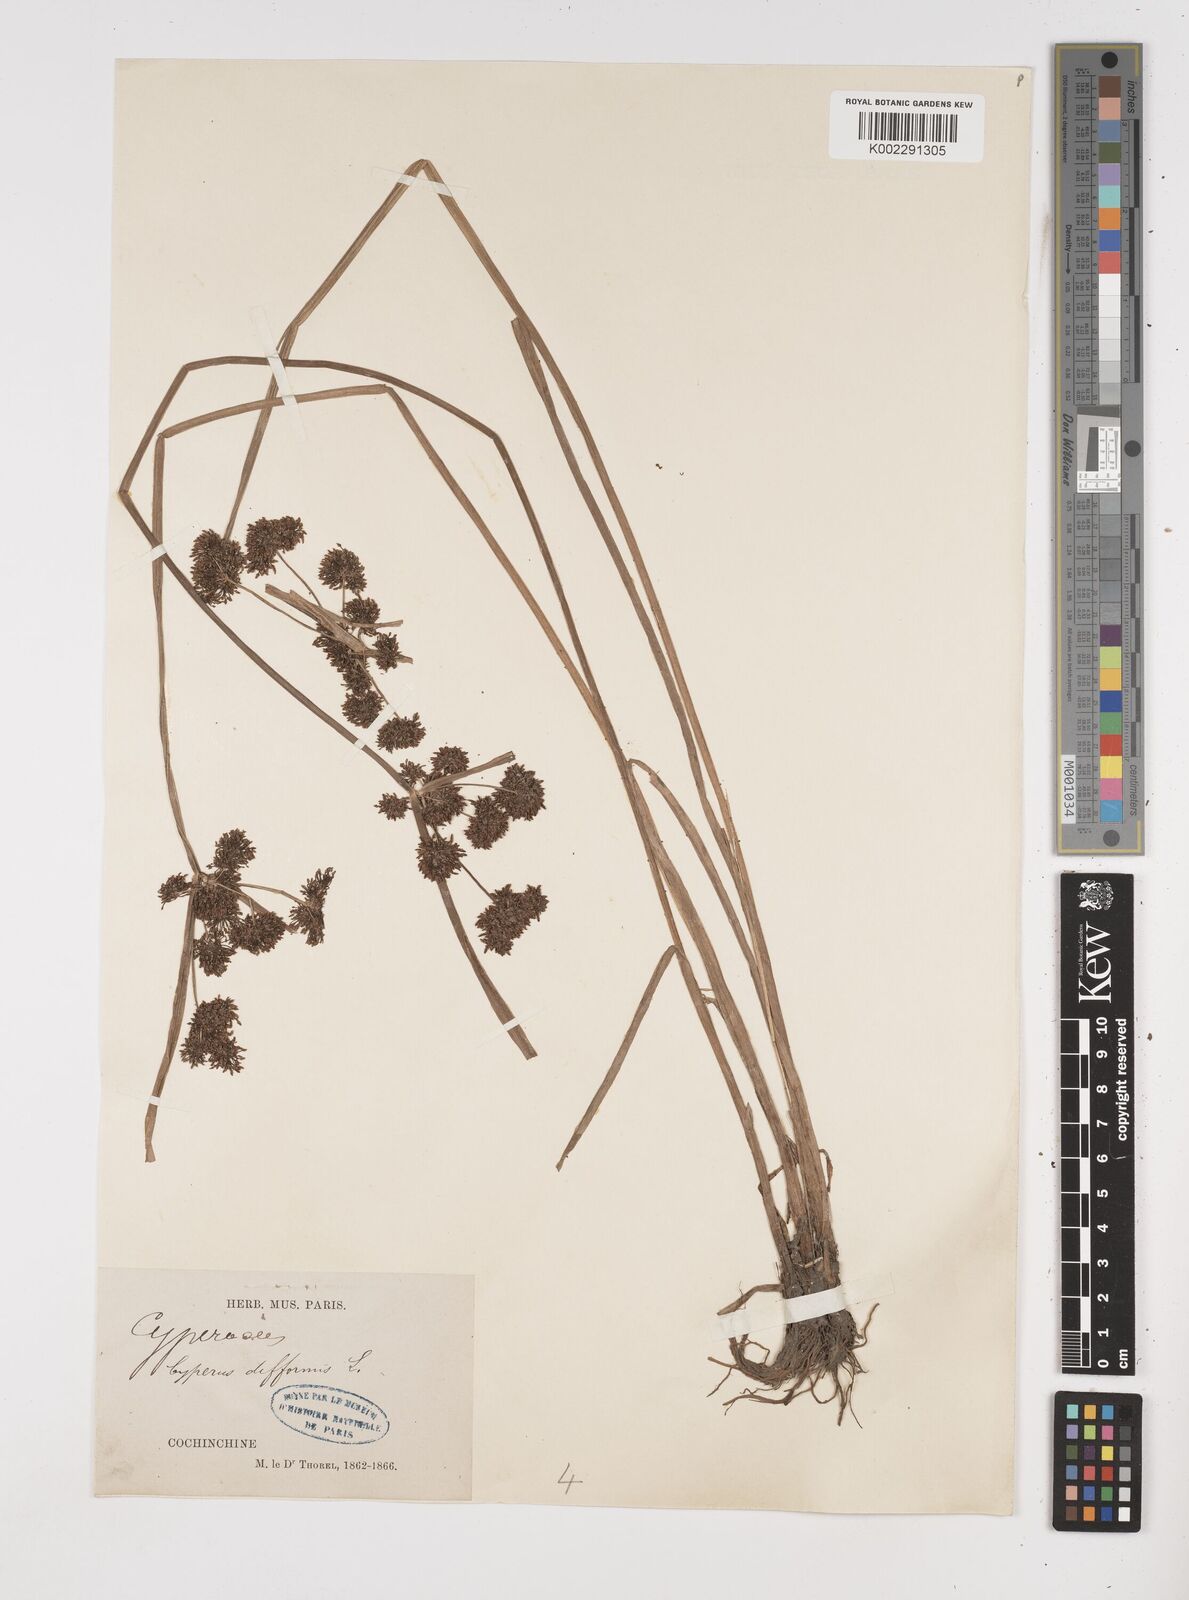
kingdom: Plantae
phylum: Tracheophyta
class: Liliopsida
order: Poales
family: Cyperaceae
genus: Cyperus
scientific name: Cyperus difformis
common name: Variable flatsedge
